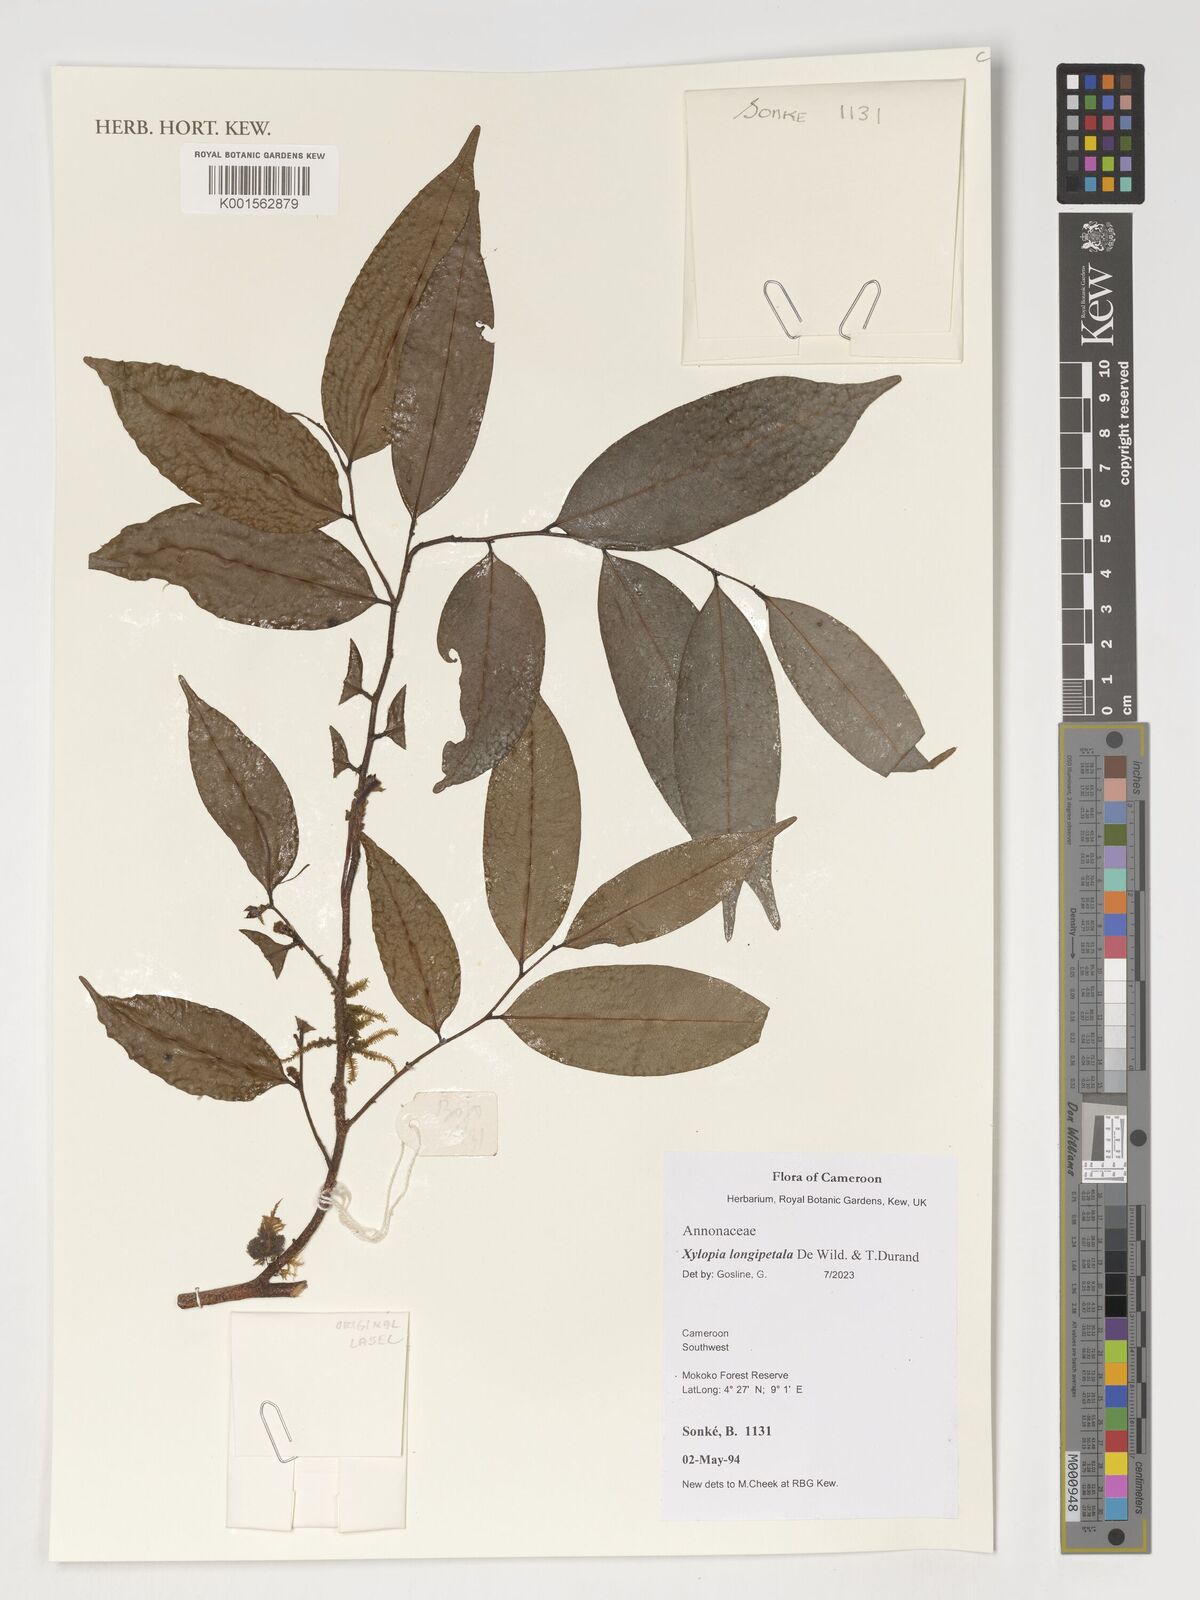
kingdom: Plantae
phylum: Tracheophyta
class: Magnoliopsida
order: Magnoliales
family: Annonaceae
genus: Xylopia
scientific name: Xylopia parviflora
